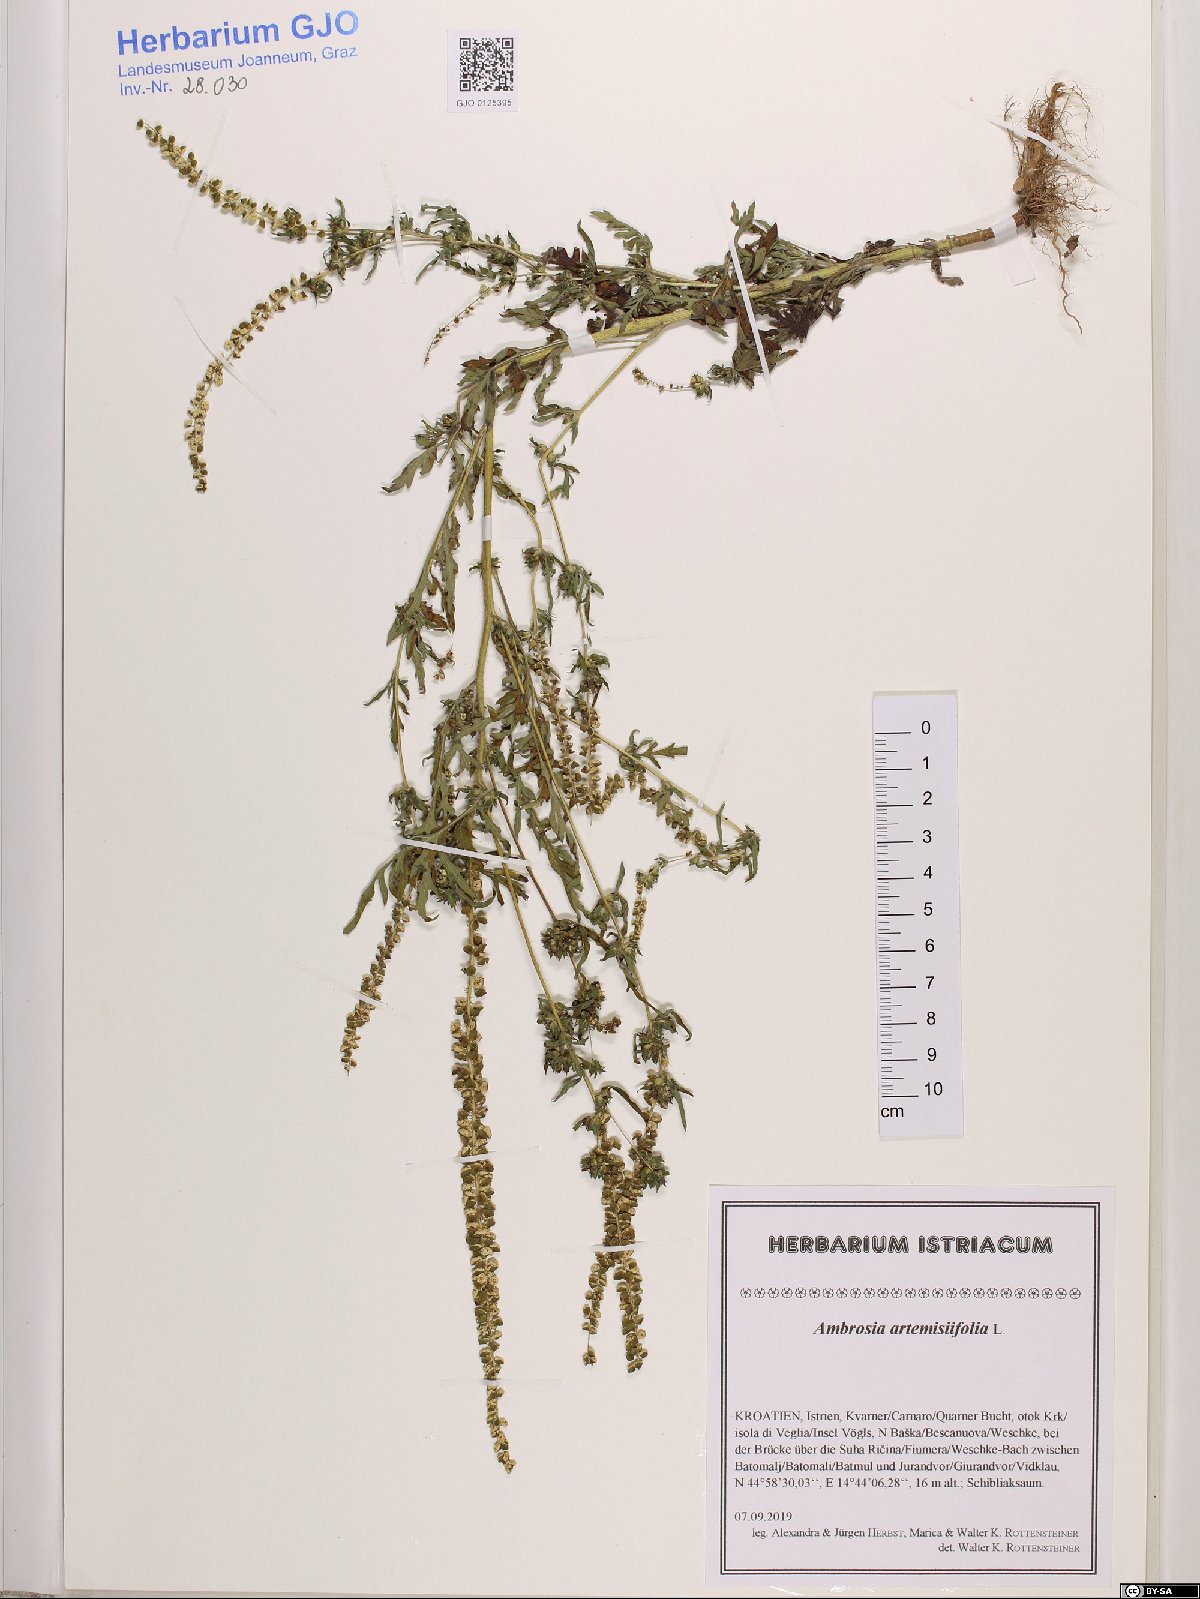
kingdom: Plantae
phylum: Tracheophyta
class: Magnoliopsida
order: Asterales
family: Asteraceae
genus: Ambrosia
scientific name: Ambrosia artemisiifolia
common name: Annual ragweed
